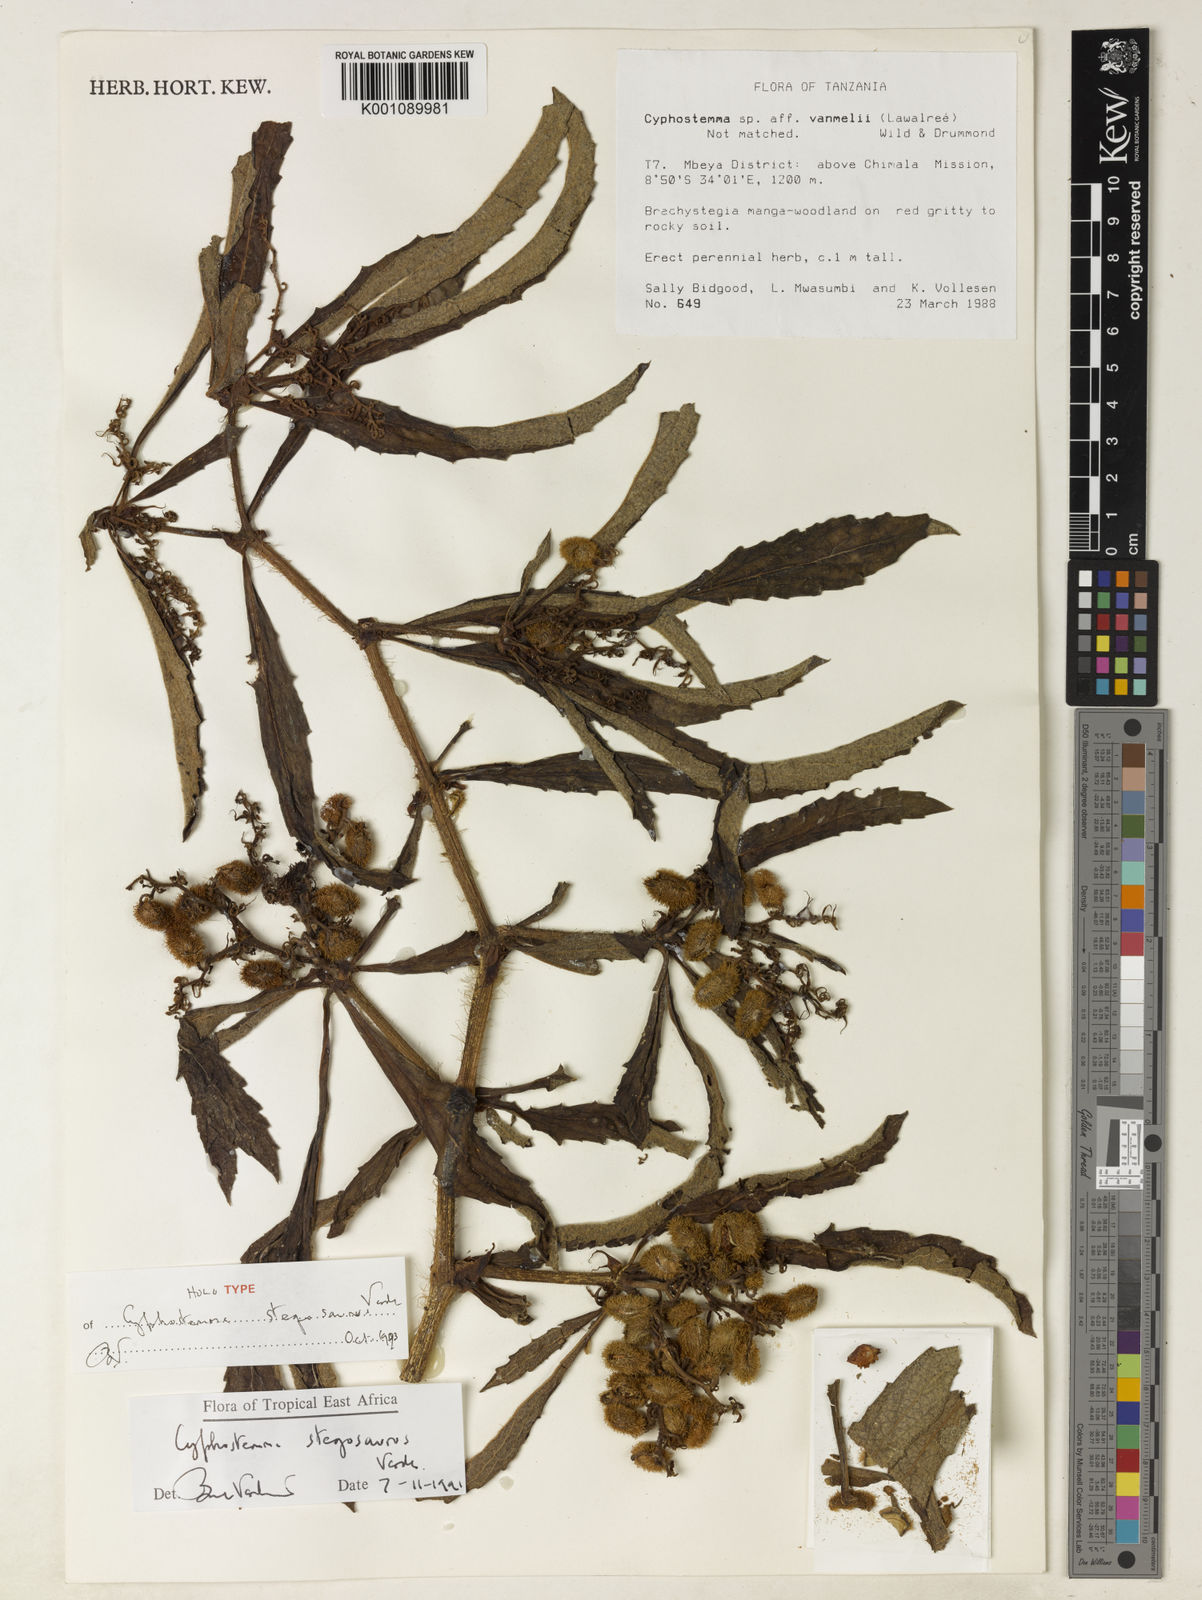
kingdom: Plantae
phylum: Tracheophyta
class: Magnoliopsida
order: Vitales
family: Vitaceae
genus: Cyphostemma
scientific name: Cyphostemma stegosaurus
